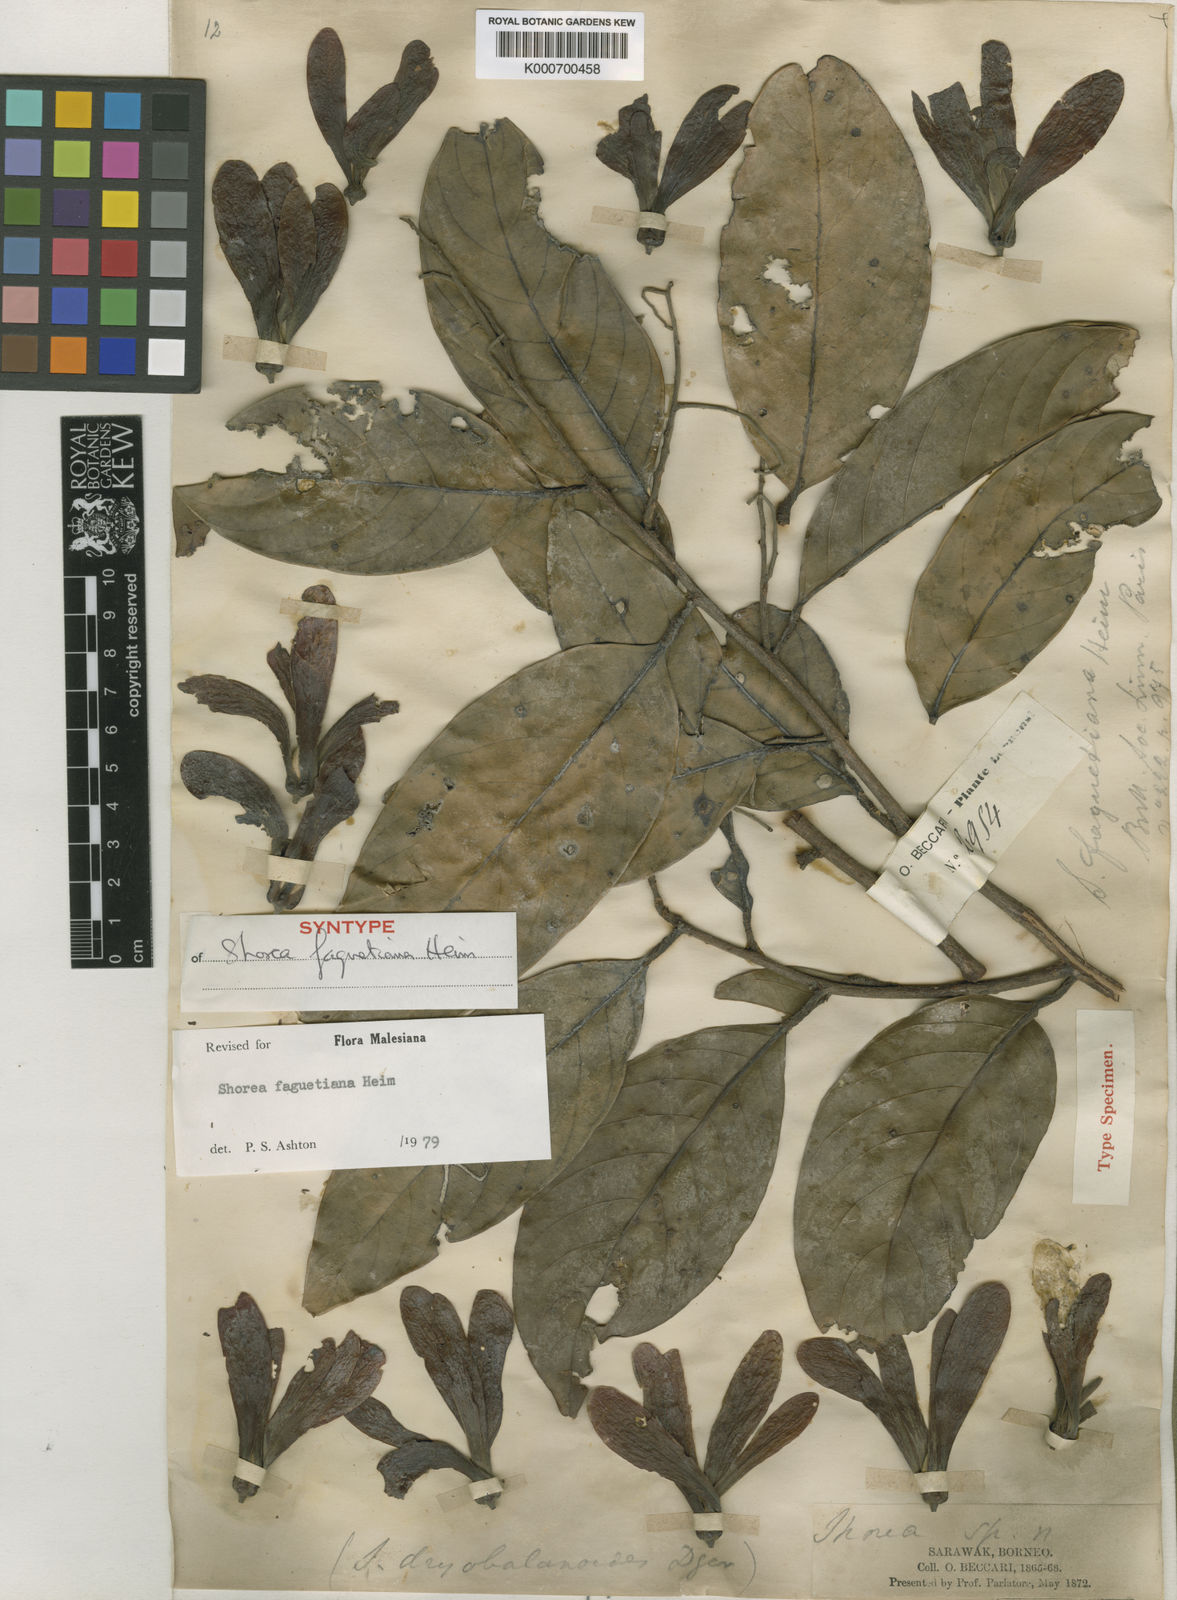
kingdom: Plantae
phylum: Tracheophyta
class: Magnoliopsida
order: Malvales
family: Dipterocarpaceae
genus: Shorea
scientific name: Shorea faguetiana
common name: Yellow meranti
